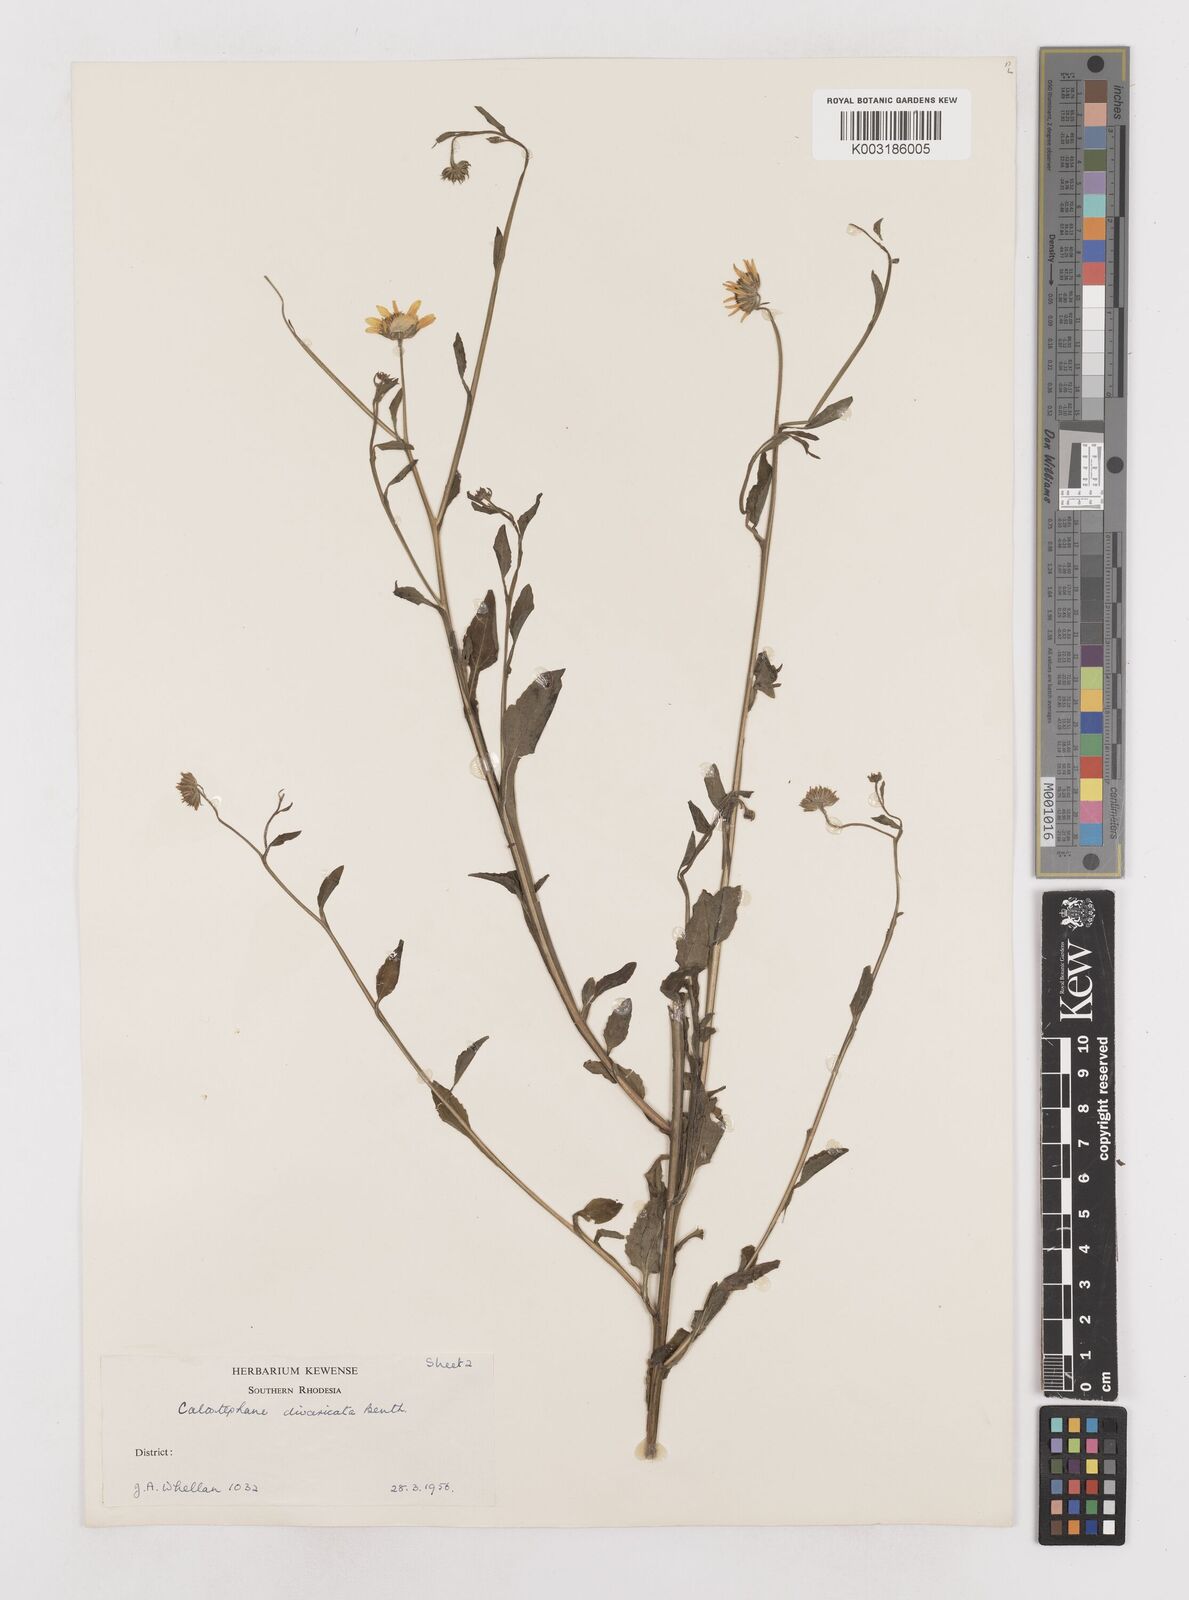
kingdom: Plantae
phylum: Tracheophyta
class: Magnoliopsida
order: Asterales
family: Asteraceae
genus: Calostephane
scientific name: Calostephane divaricata
